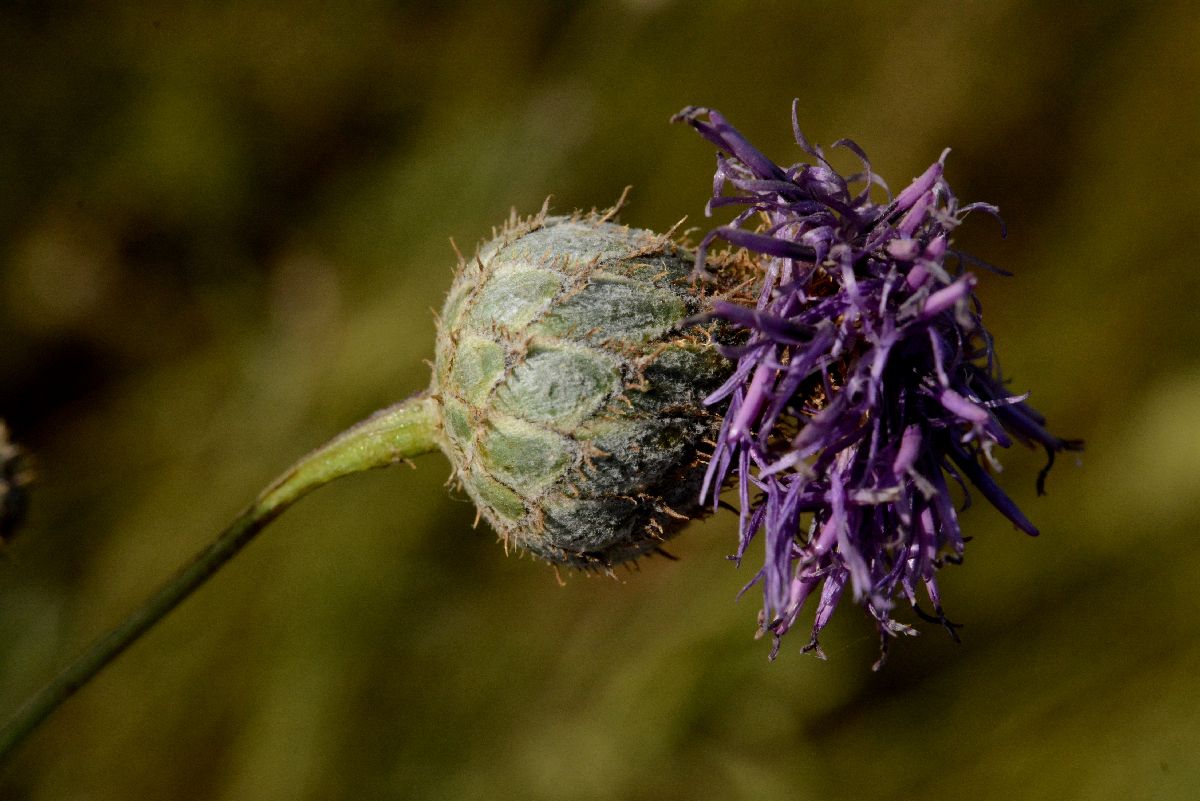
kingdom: Plantae
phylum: Tracheophyta
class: Magnoliopsida
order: Asterales
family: Asteraceae
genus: Centaurea
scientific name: Centaurea scabiosa
